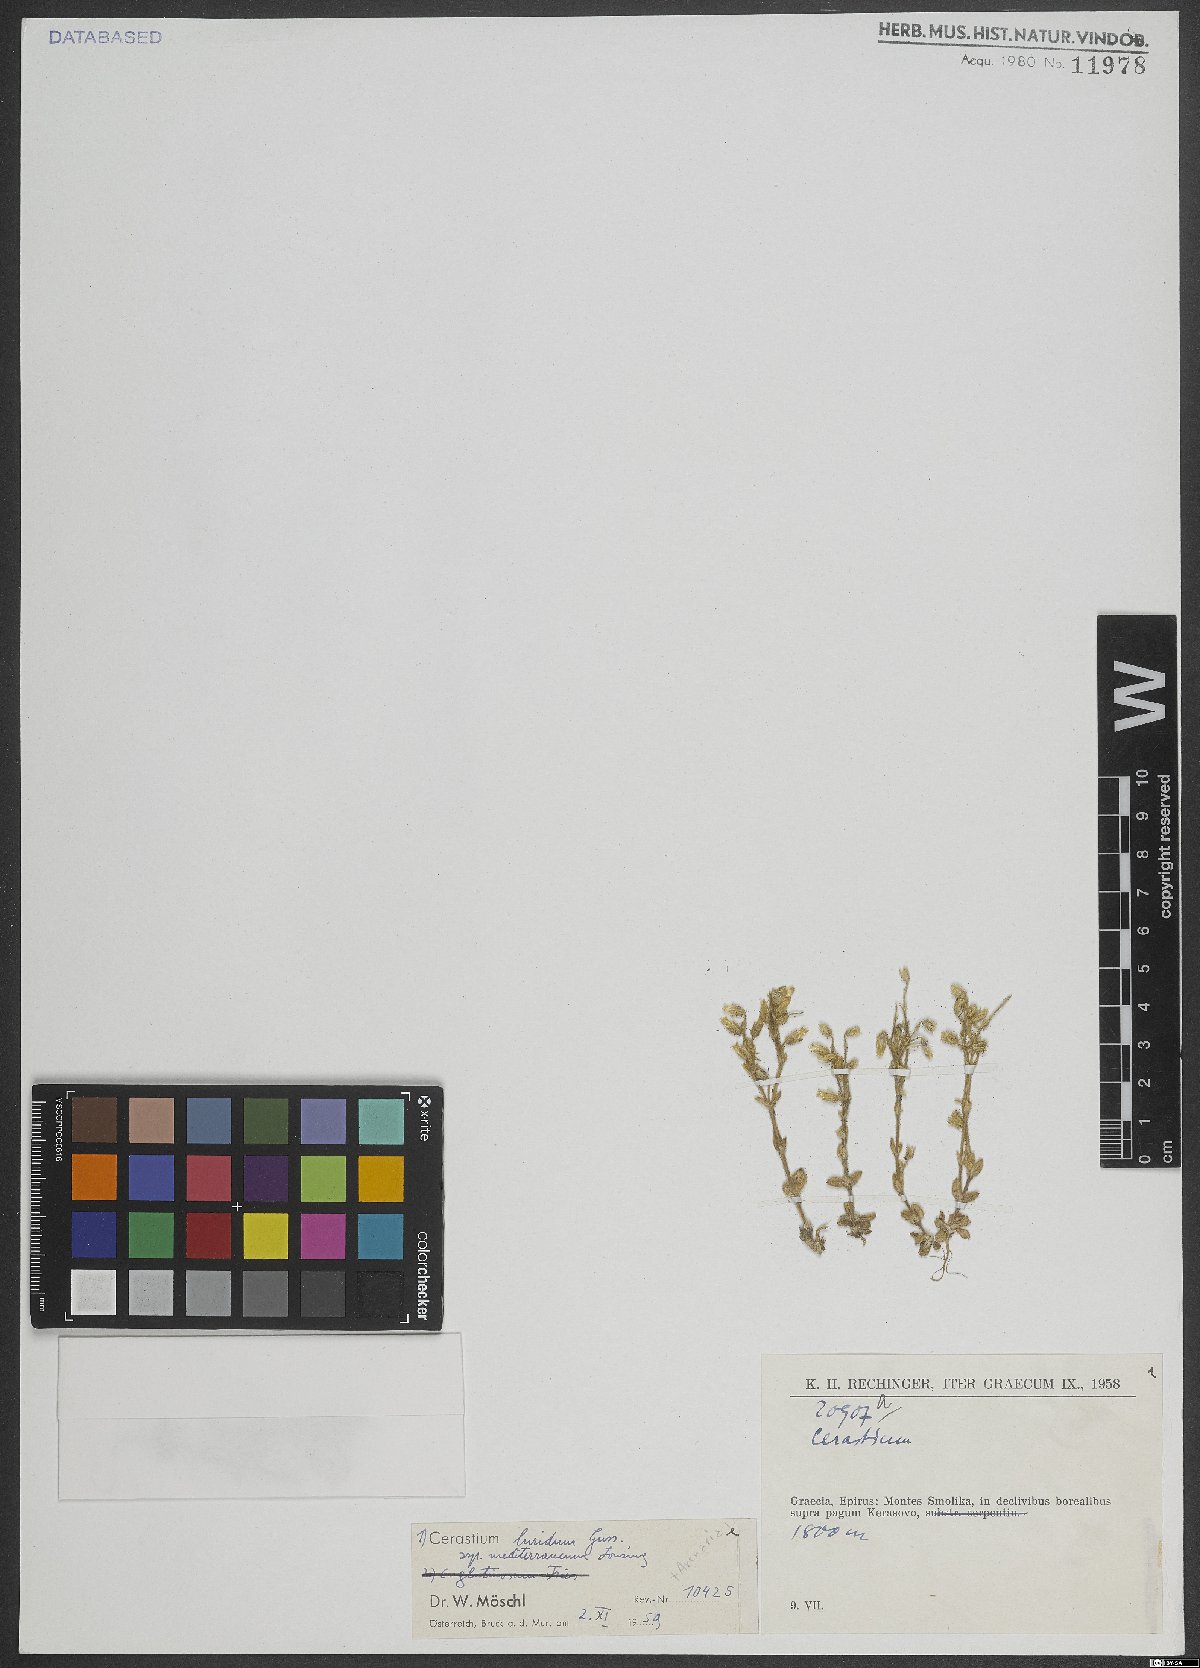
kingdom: Plantae
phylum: Tracheophyta
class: Magnoliopsida
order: Caryophyllales
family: Caryophyllaceae
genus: Cerastium
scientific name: Cerastium brachypetalum
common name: Grey mouse-ear
